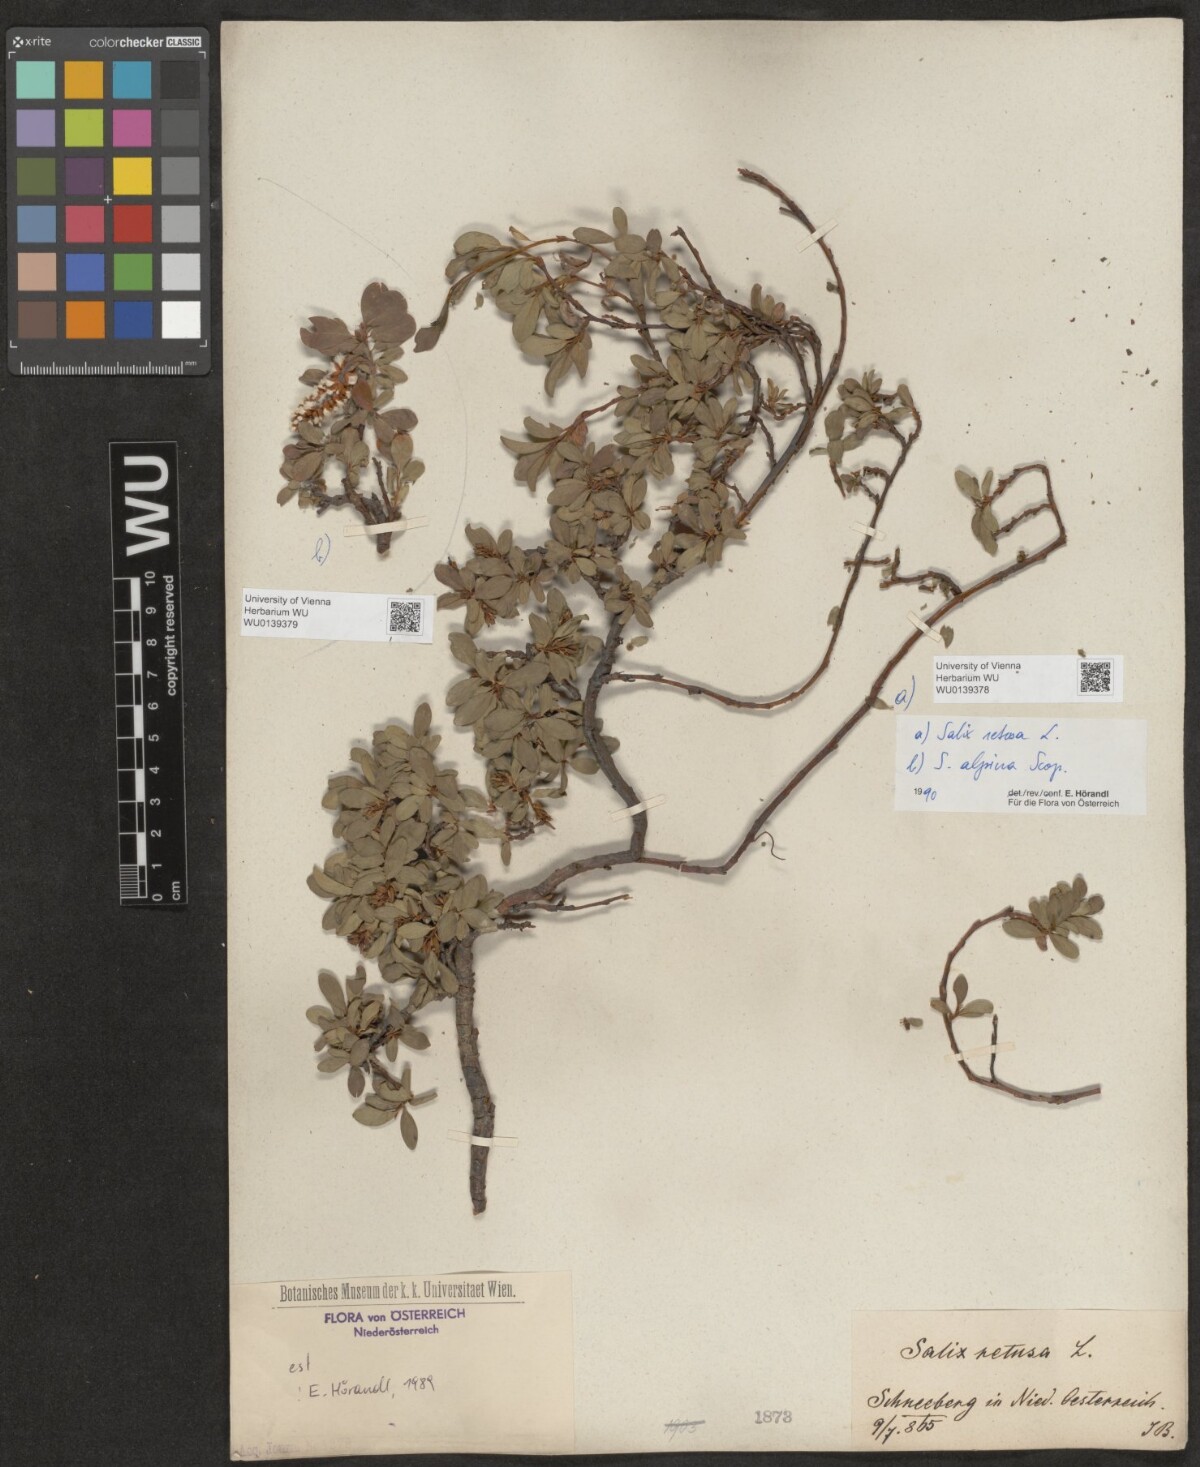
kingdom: Plantae
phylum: Tracheophyta
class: Magnoliopsida
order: Malpighiales
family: Salicaceae
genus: Salix
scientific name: Salix retusa
